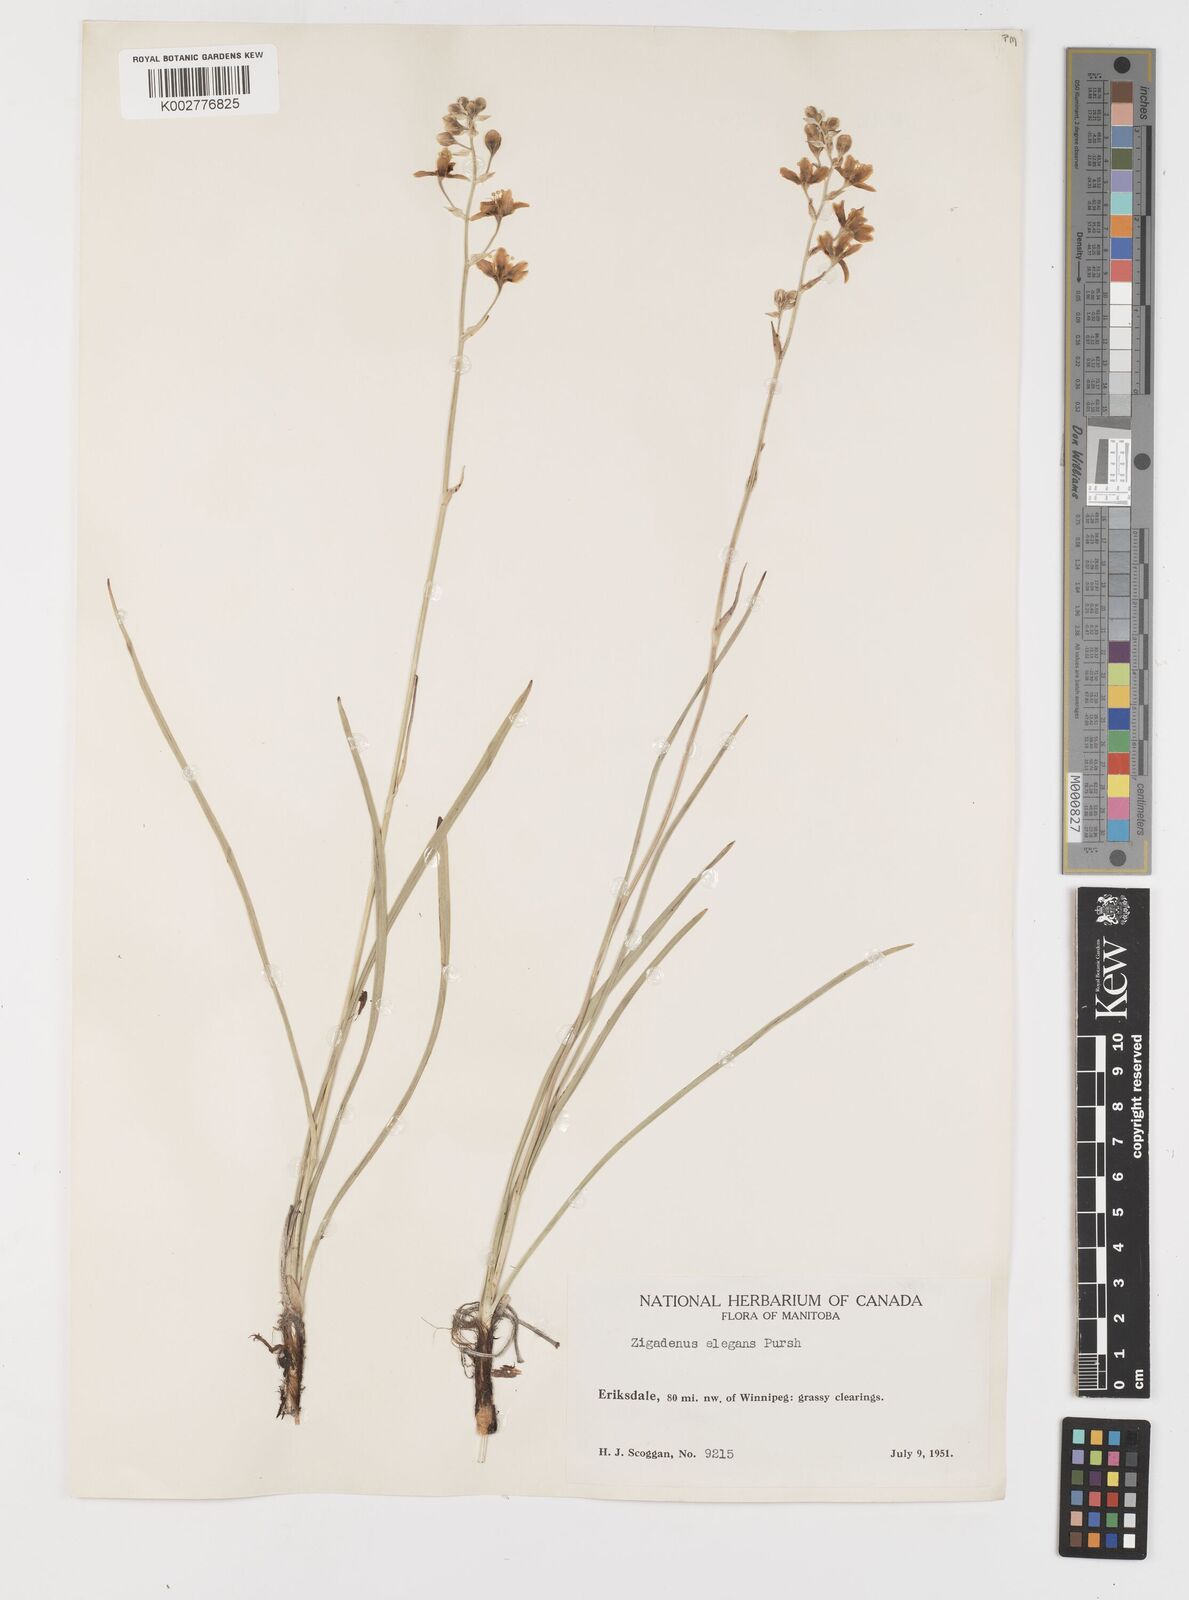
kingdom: Plantae
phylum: Tracheophyta
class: Liliopsida
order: Liliales
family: Melanthiaceae
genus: Anticlea
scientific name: Anticlea elegans
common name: Mountain death camas
